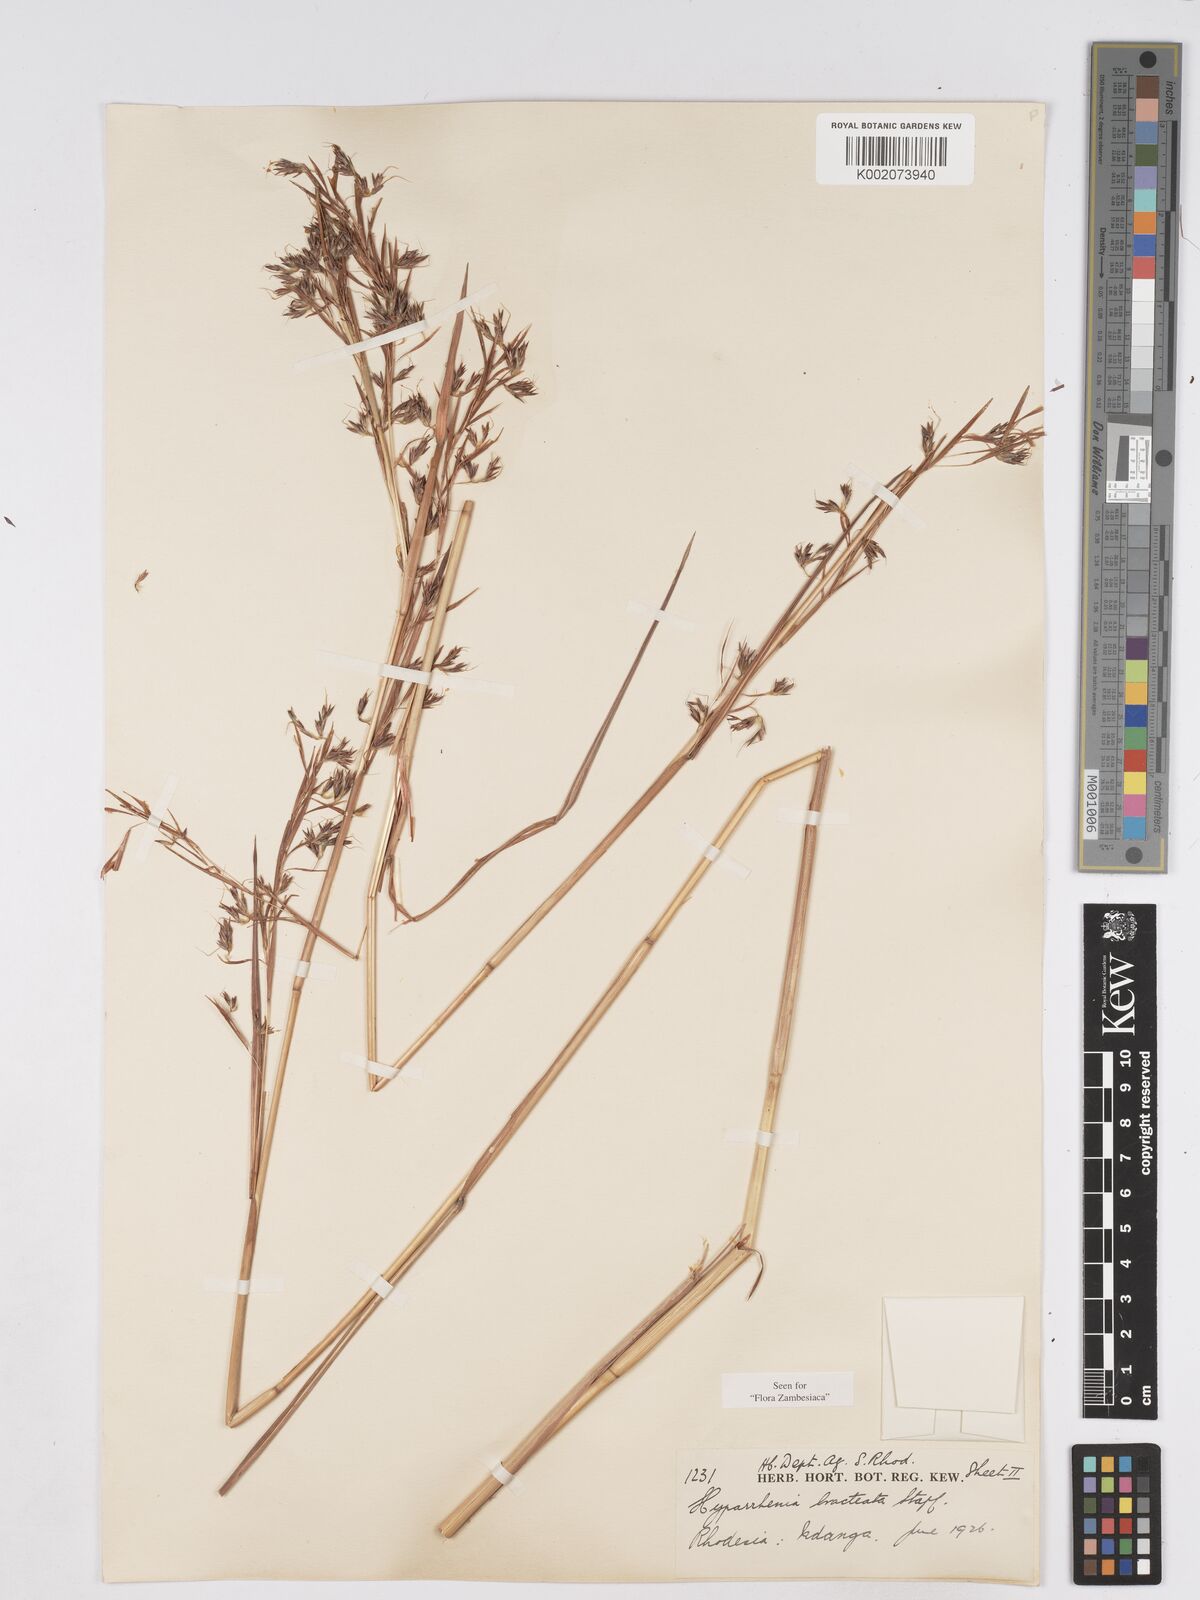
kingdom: Plantae
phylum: Tracheophyta
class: Liliopsida
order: Poales
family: Poaceae
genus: Hyparrhenia
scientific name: Hyparrhenia bracteata
